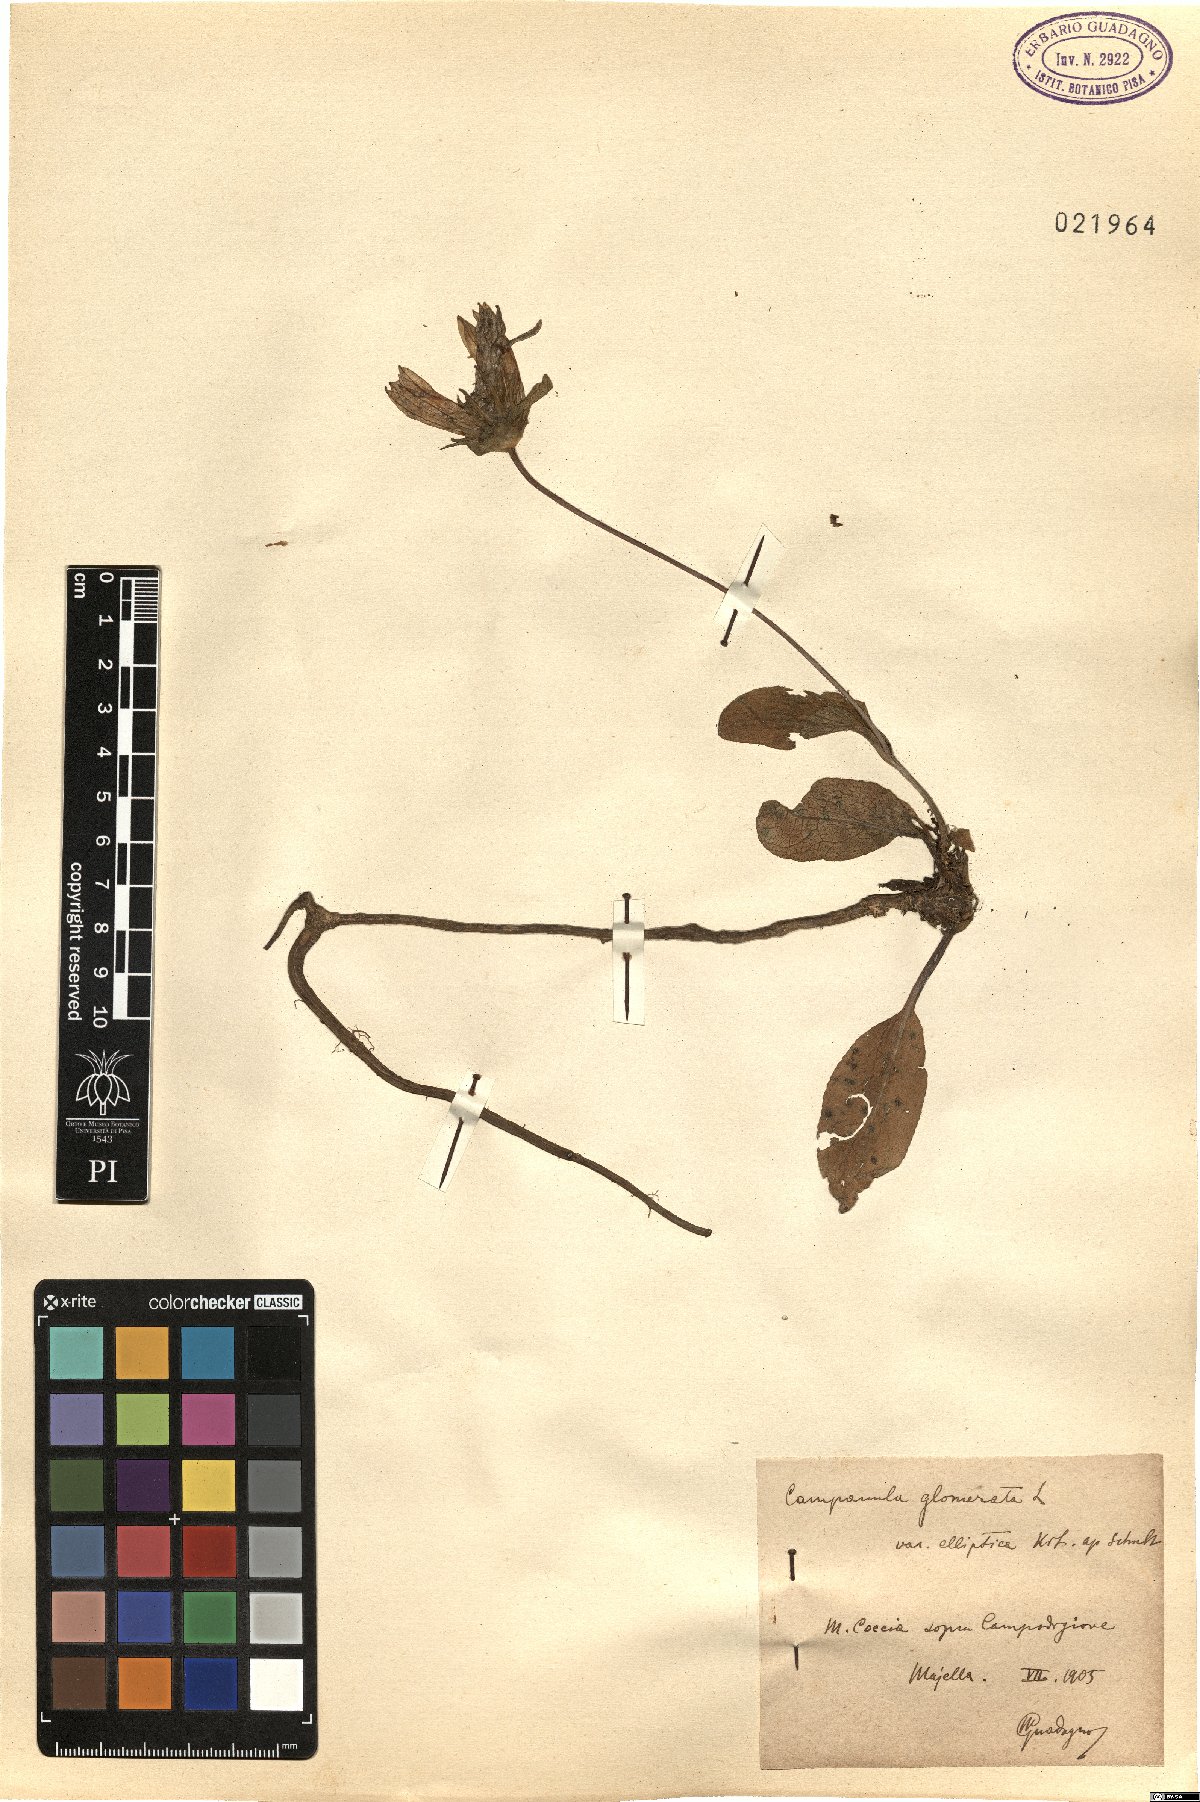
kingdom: Plantae
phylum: Tracheophyta
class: Magnoliopsida
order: Asterales
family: Campanulaceae
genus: Campanula
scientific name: Campanula glomerata
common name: Clustered bellflower
